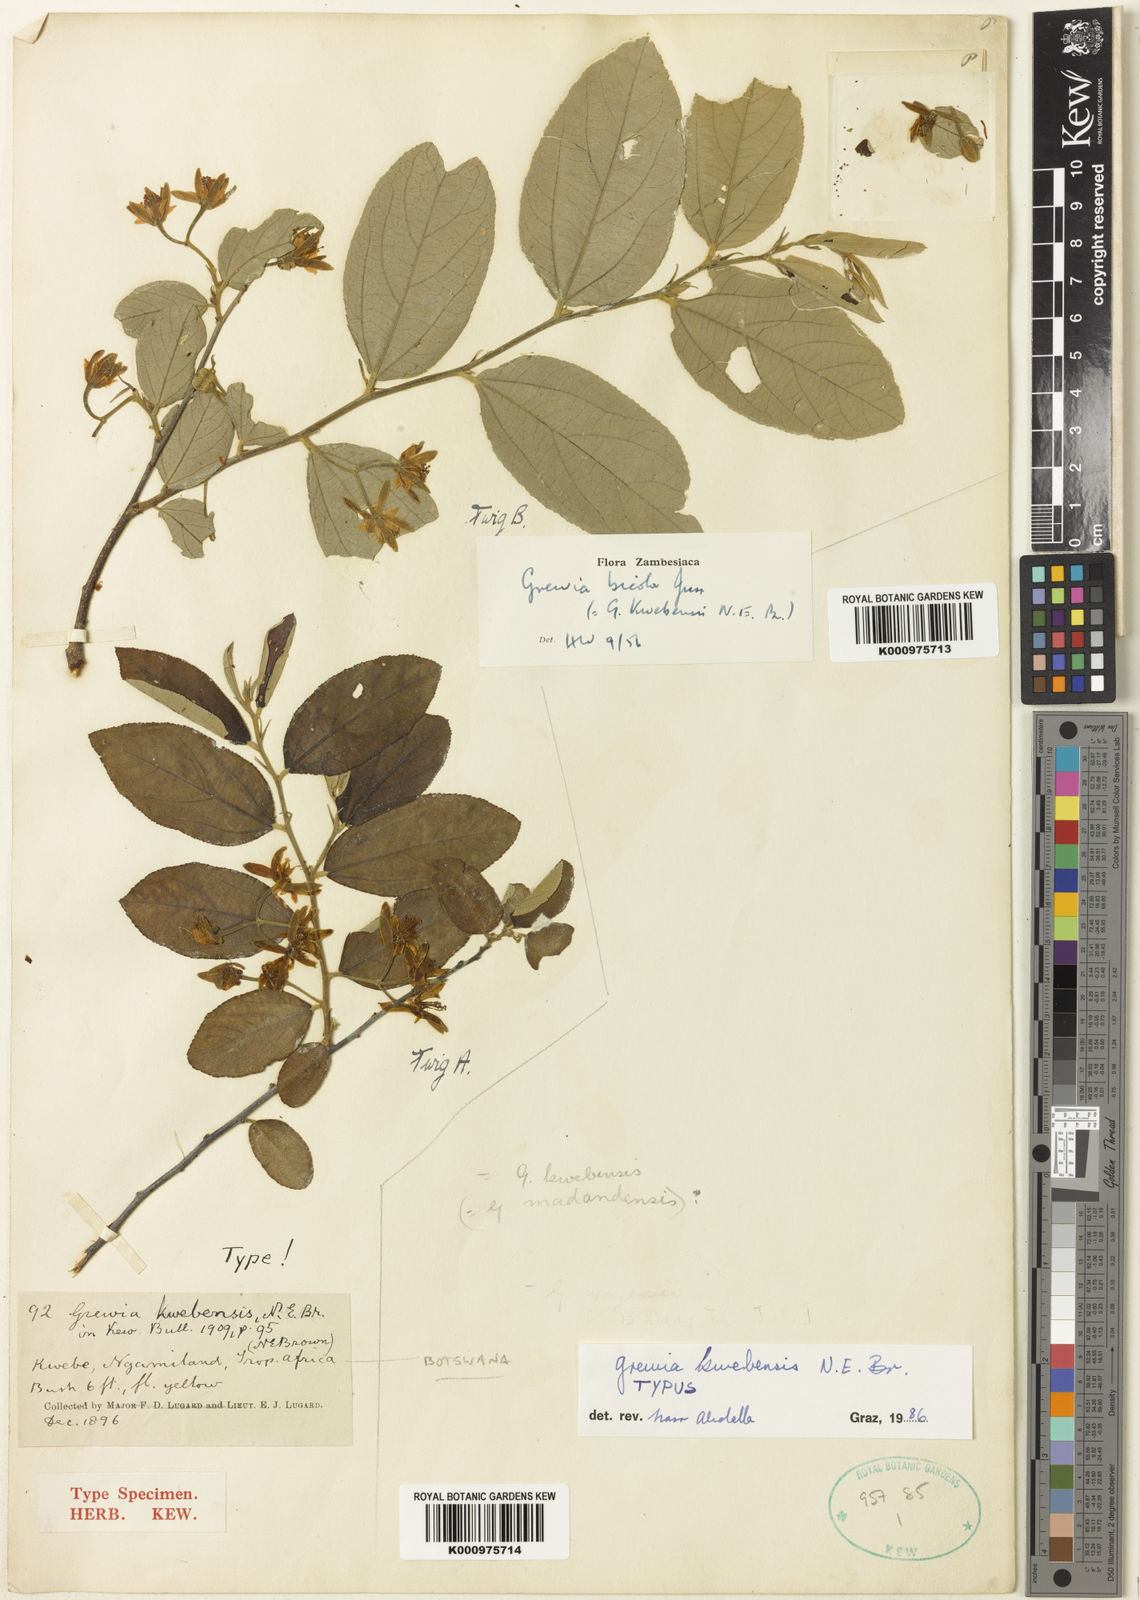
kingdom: Plantae
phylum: Tracheophyta
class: Magnoliopsida
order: Malvales
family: Malvaceae
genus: Grewia
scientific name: Grewia bicolor
